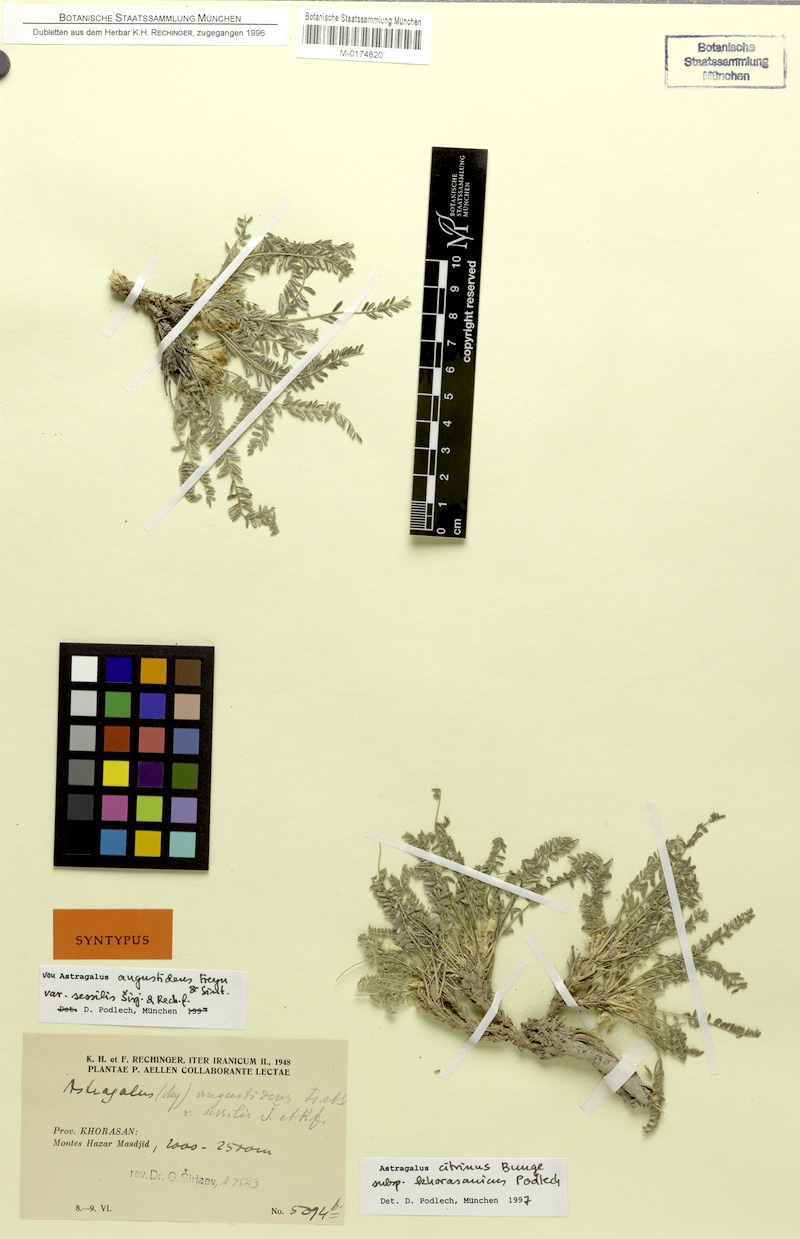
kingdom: Plantae
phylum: Tracheophyta
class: Magnoliopsida
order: Fabales
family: Fabaceae
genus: Astragalus
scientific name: Astragalus citrinus
